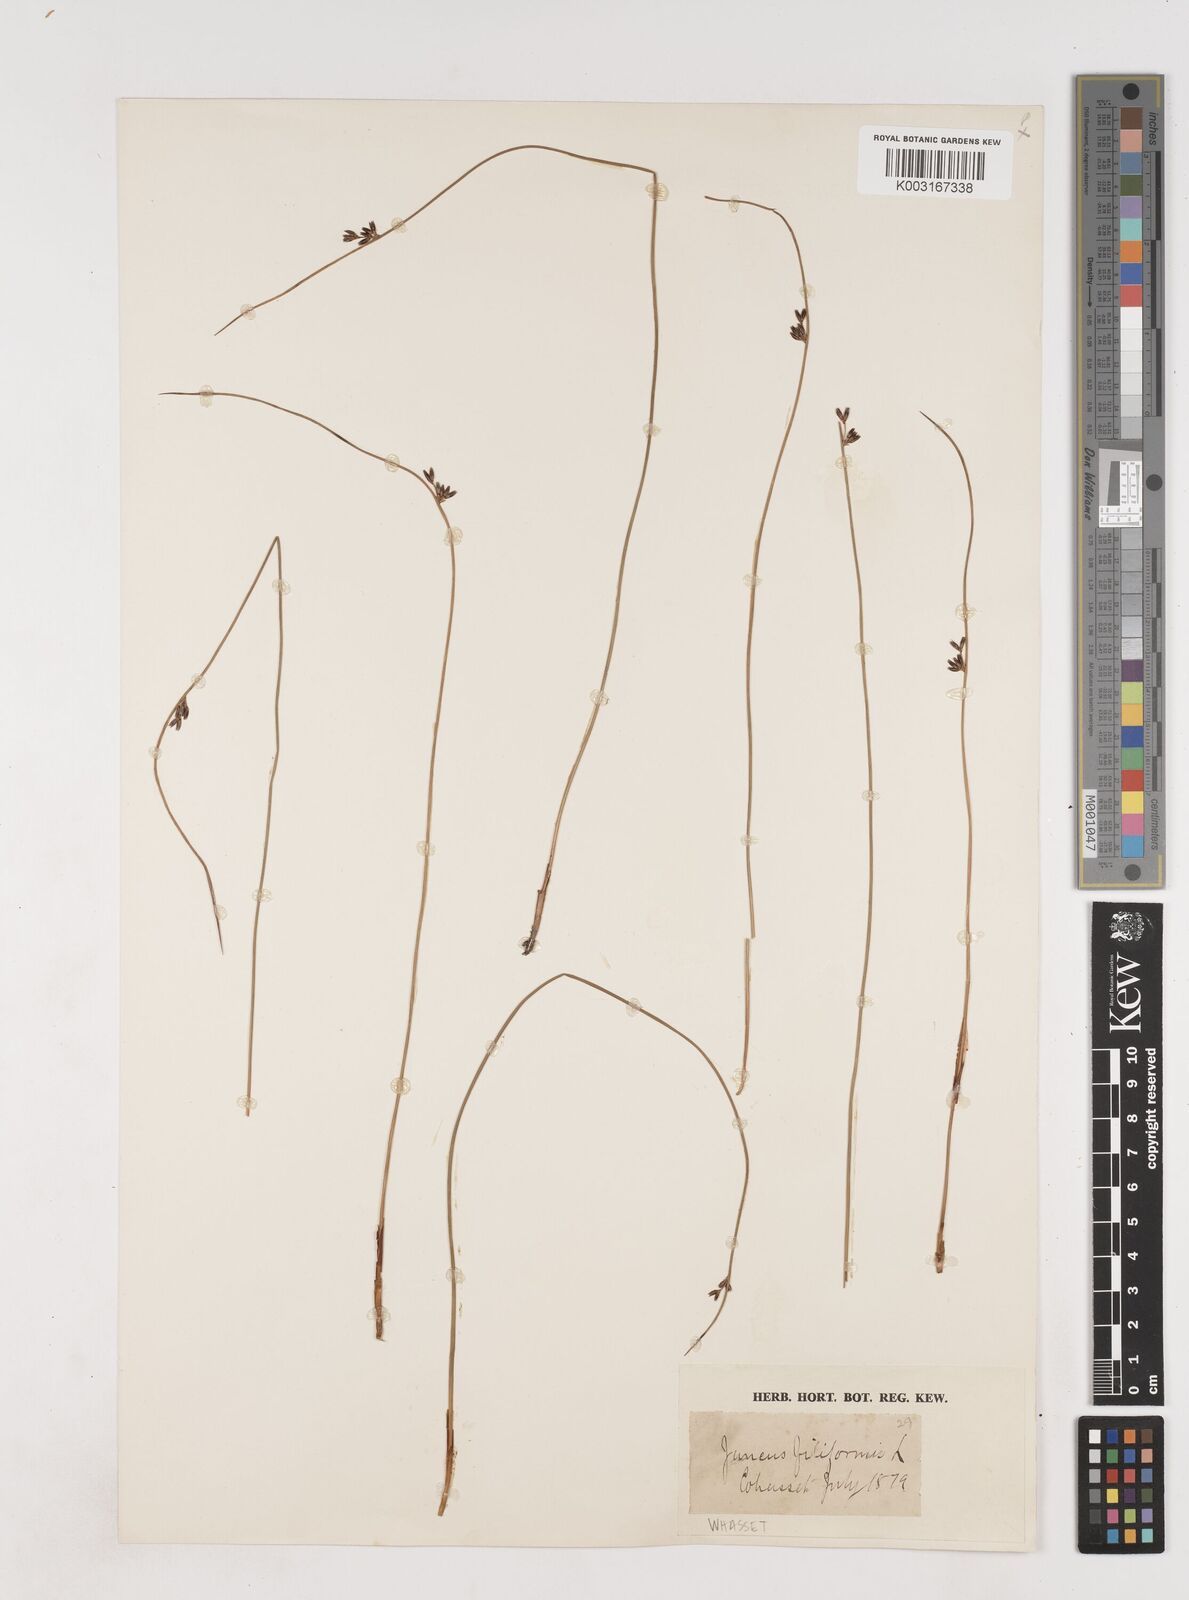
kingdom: Plantae
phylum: Tracheophyta
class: Liliopsida
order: Poales
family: Juncaceae
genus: Juncus
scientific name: Juncus filiformis
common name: Thread rush
